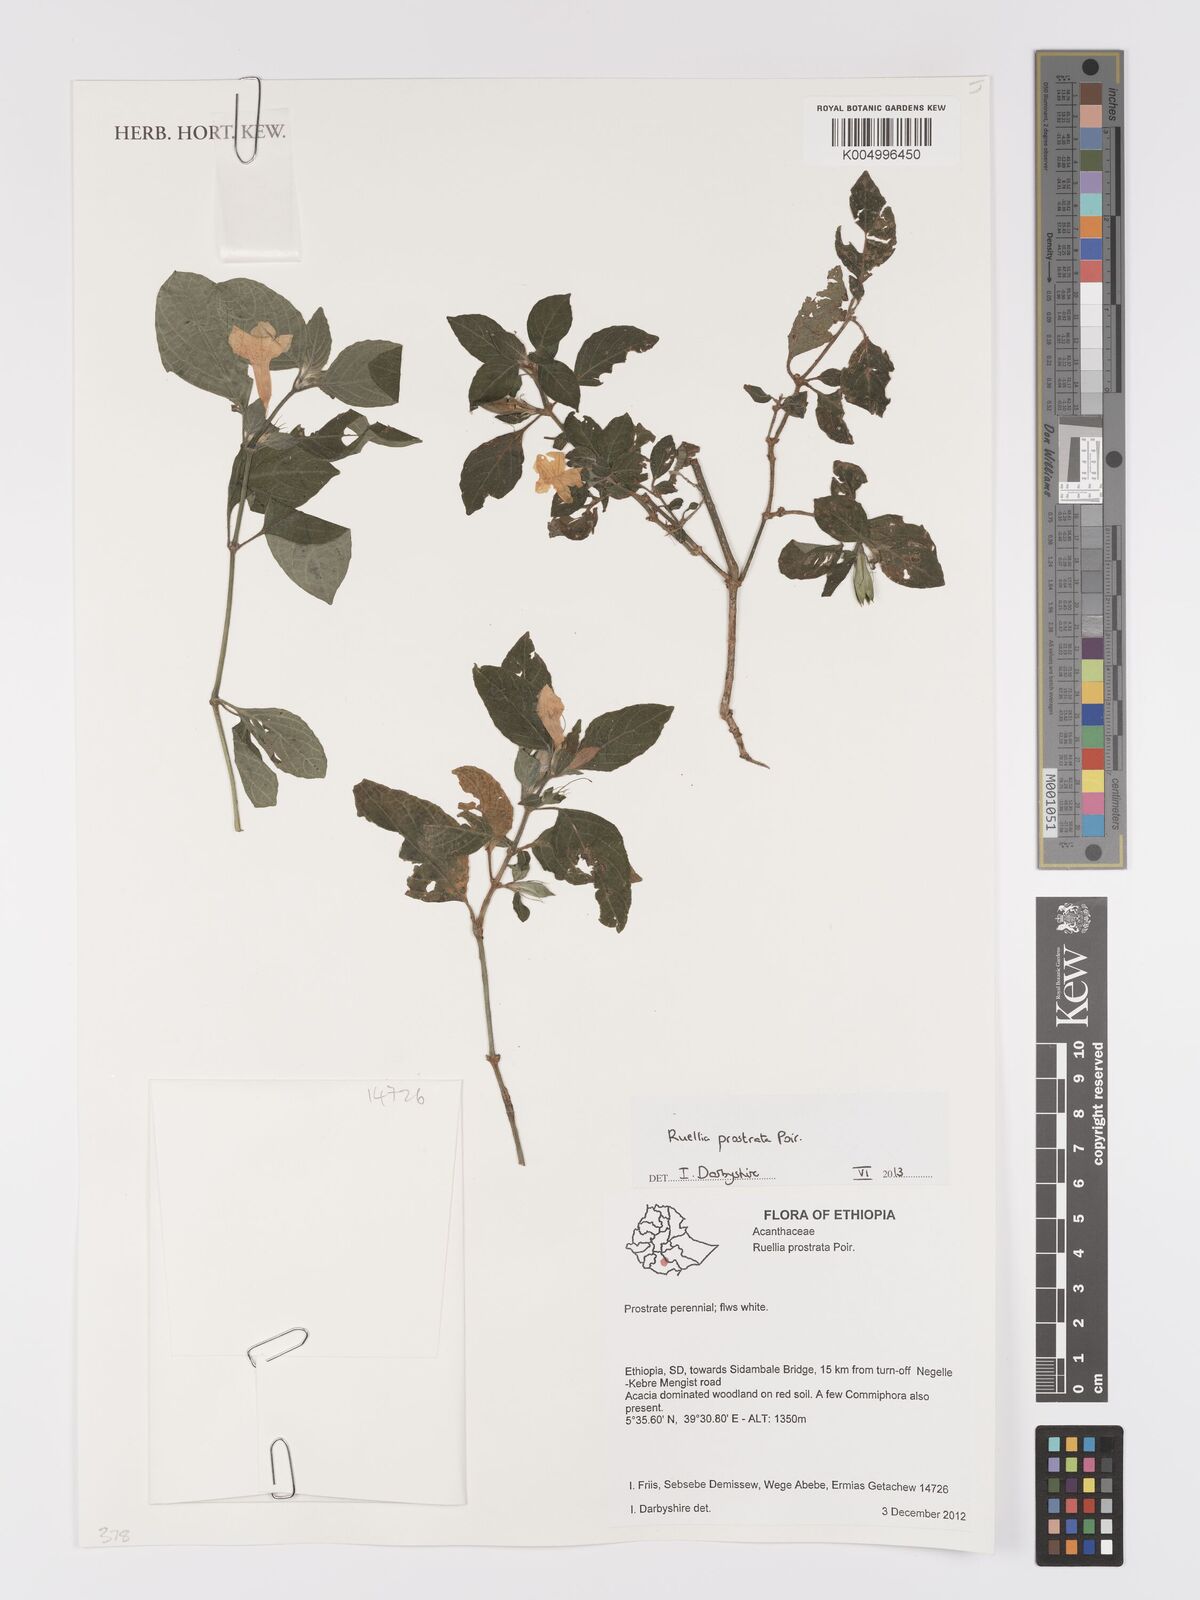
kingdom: Plantae
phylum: Tracheophyta
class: Magnoliopsida
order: Lamiales
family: Acanthaceae
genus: Ruellia
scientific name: Ruellia
